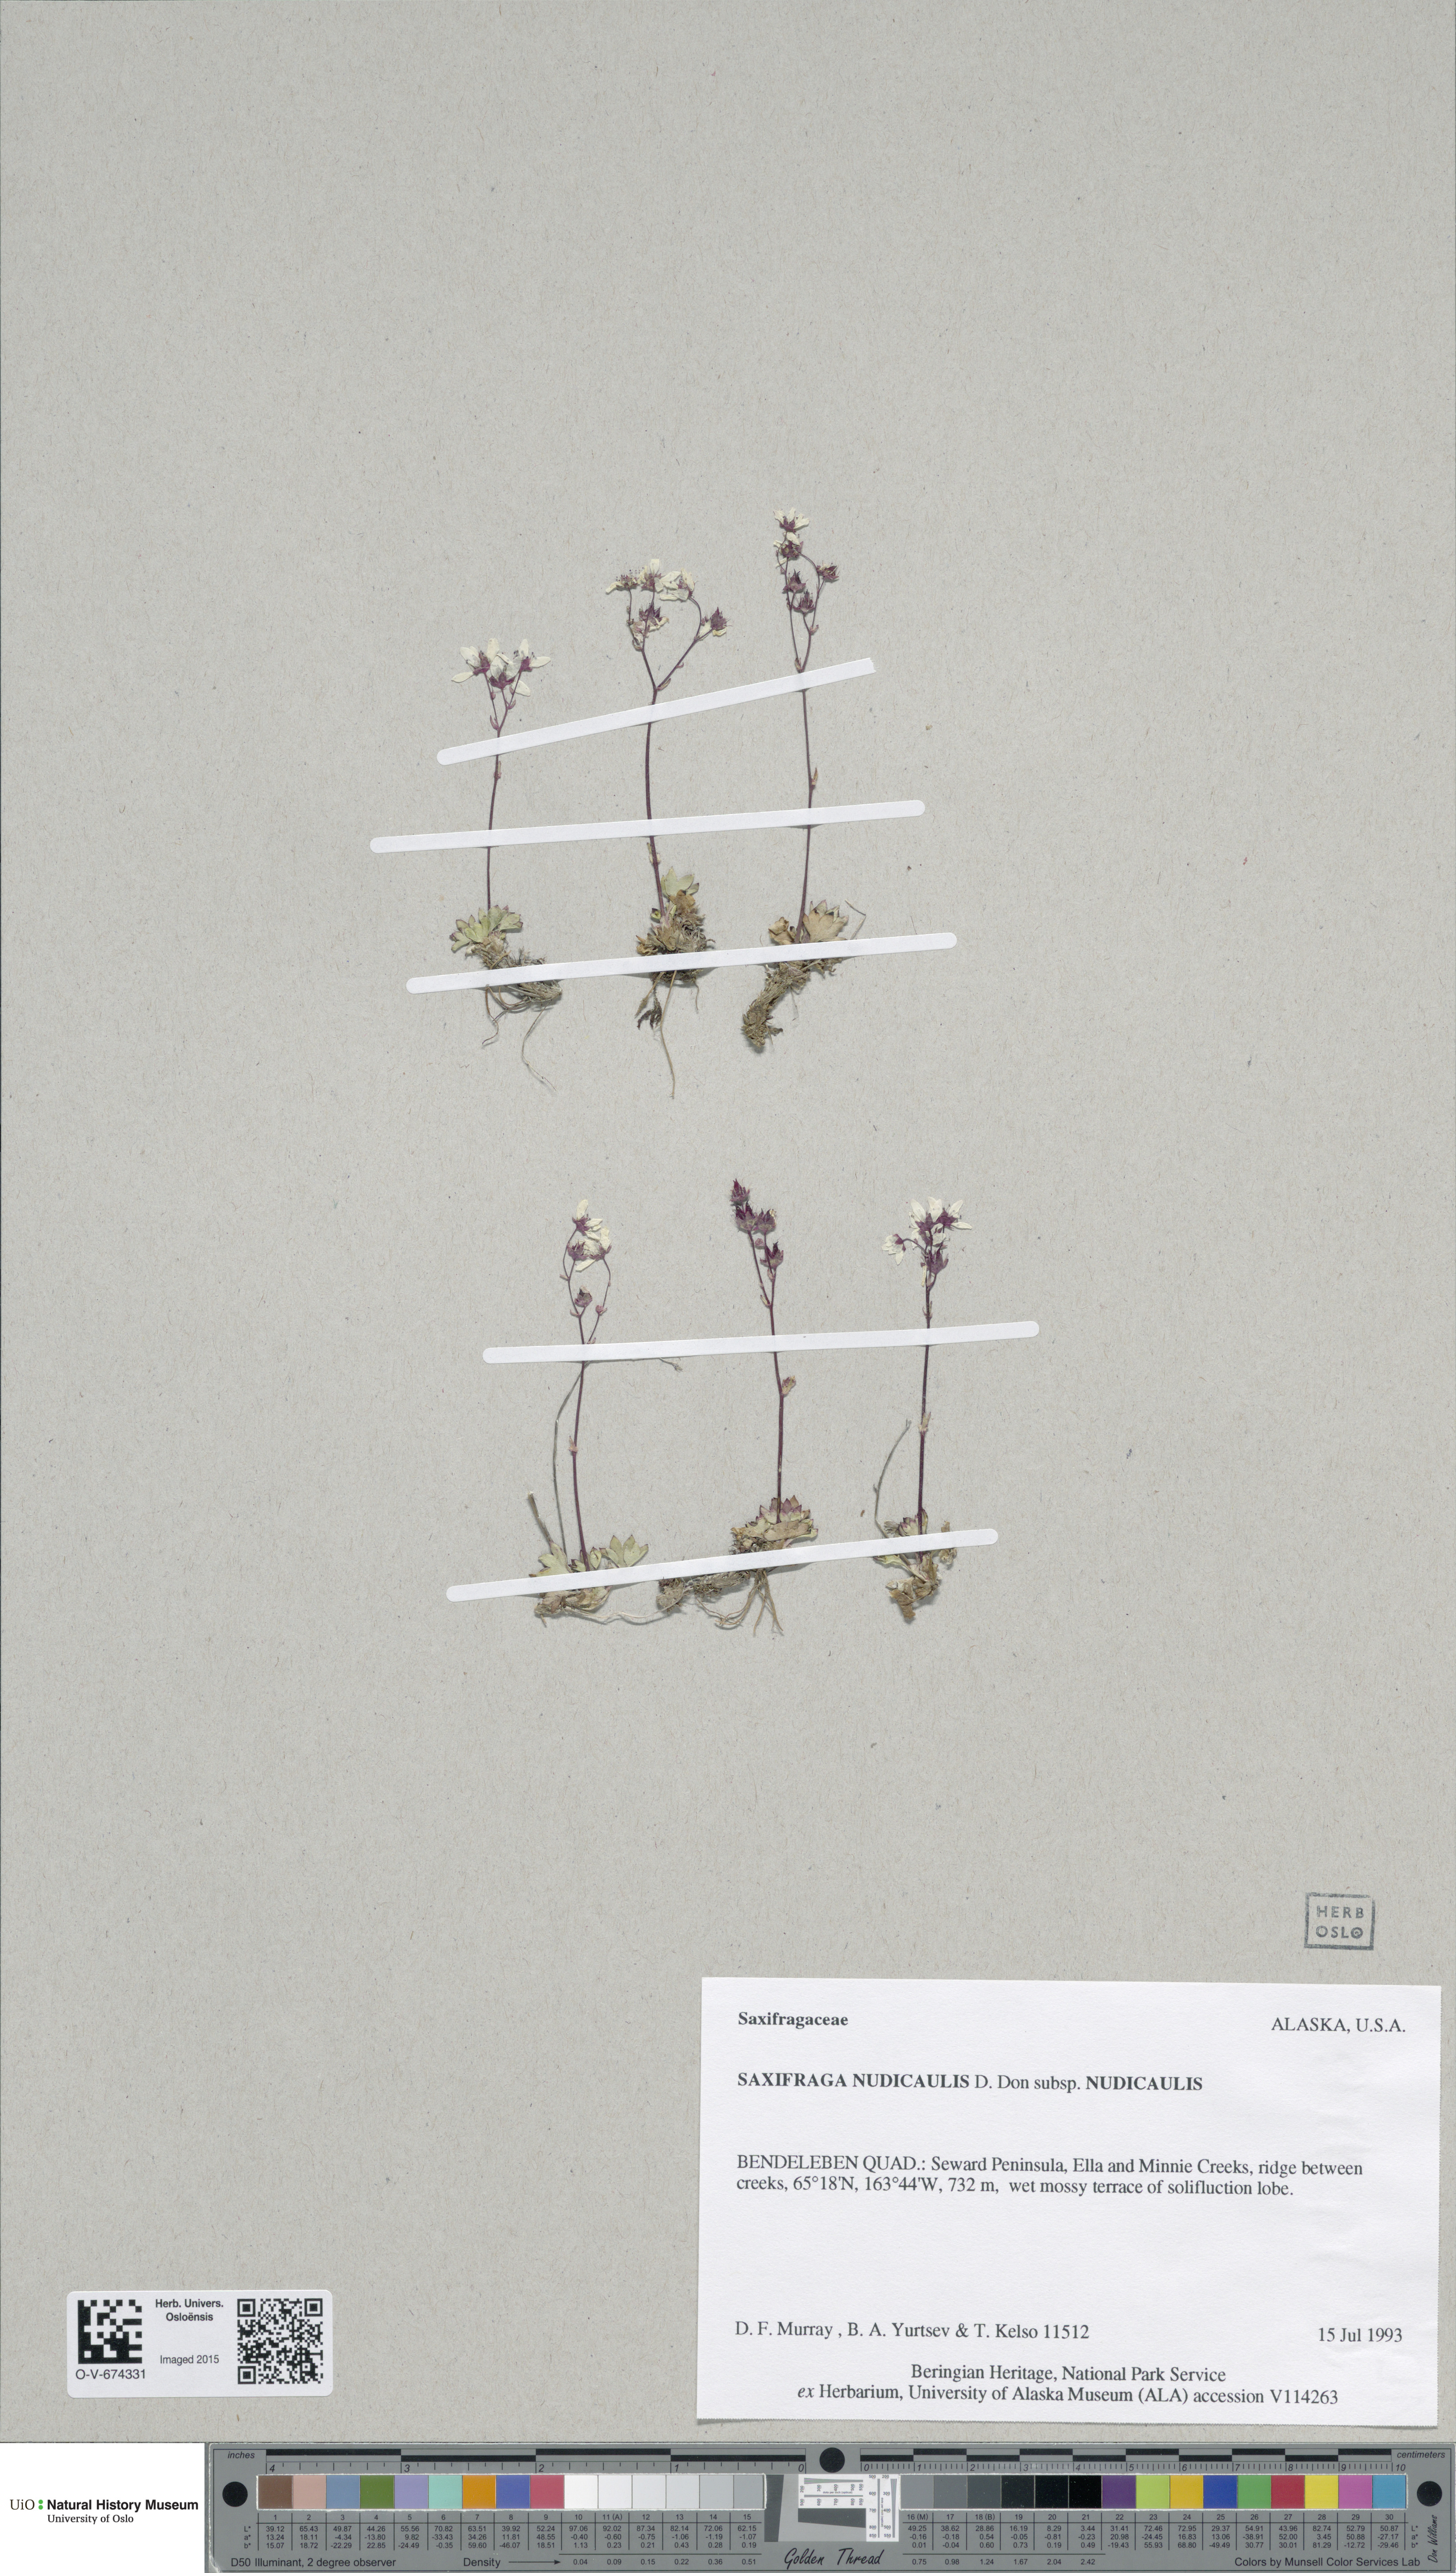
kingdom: Plantae
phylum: Tracheophyta
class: Magnoliopsida
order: Saxifragales
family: Saxifragaceae
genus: Micranthes
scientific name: Micranthes nudicaulis
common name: Nakedstem saxifrage
